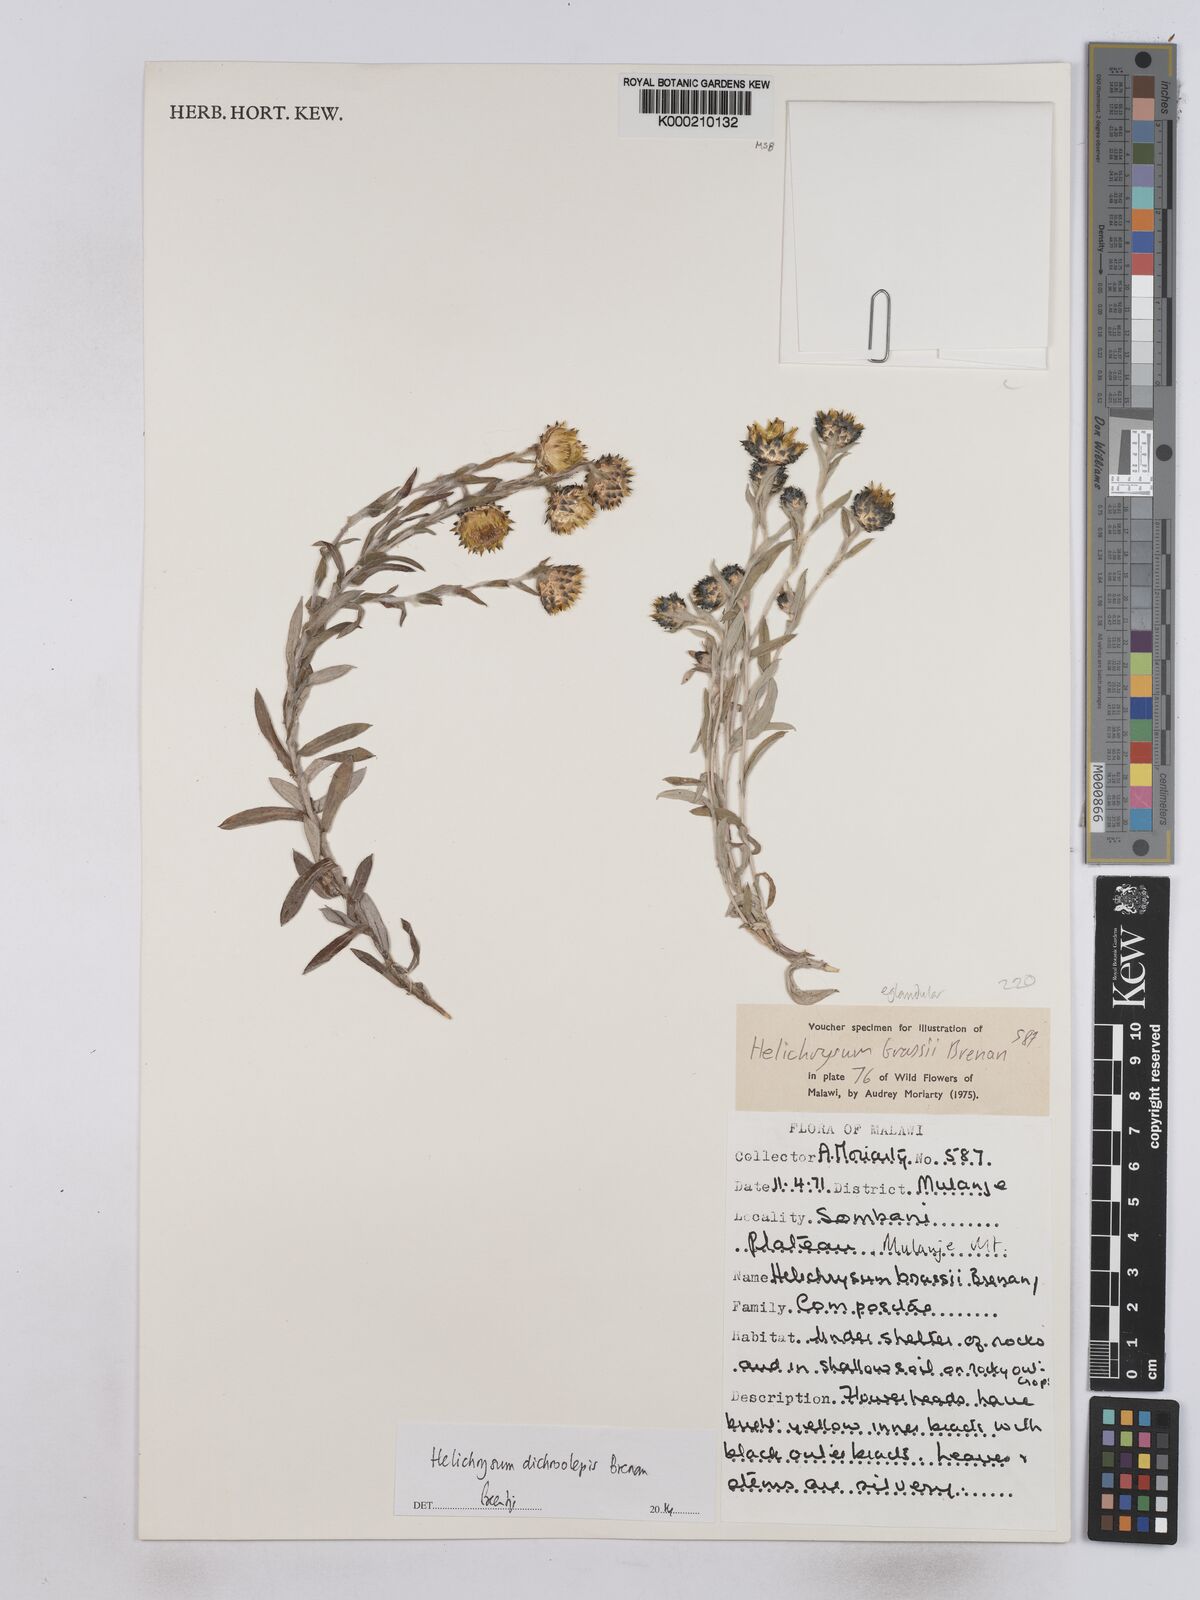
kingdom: Plantae
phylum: Tracheophyta
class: Magnoliopsida
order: Asterales
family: Asteraceae
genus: Helichrysum
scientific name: Helichrysum
